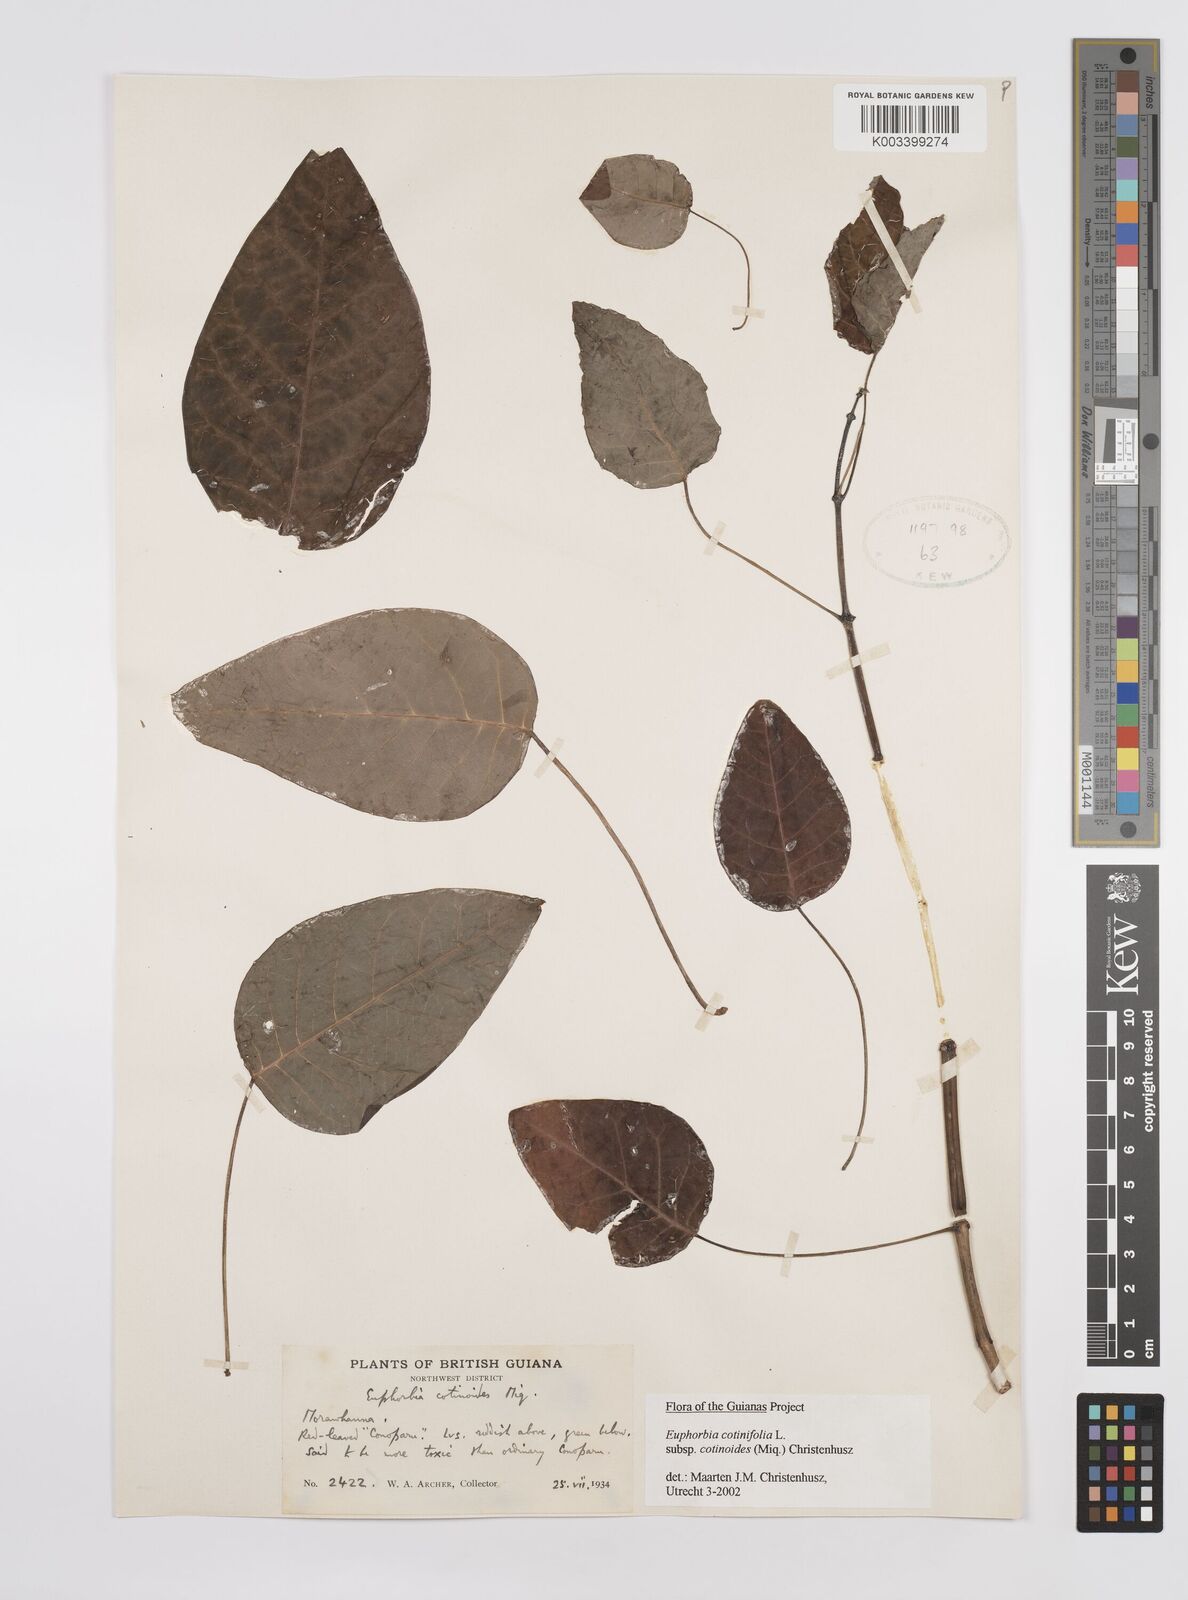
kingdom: Plantae
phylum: Tracheophyta
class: Magnoliopsida
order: Malpighiales
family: Euphorbiaceae
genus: Euphorbia
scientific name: Euphorbia cotinifolia
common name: Tropical smokebush
